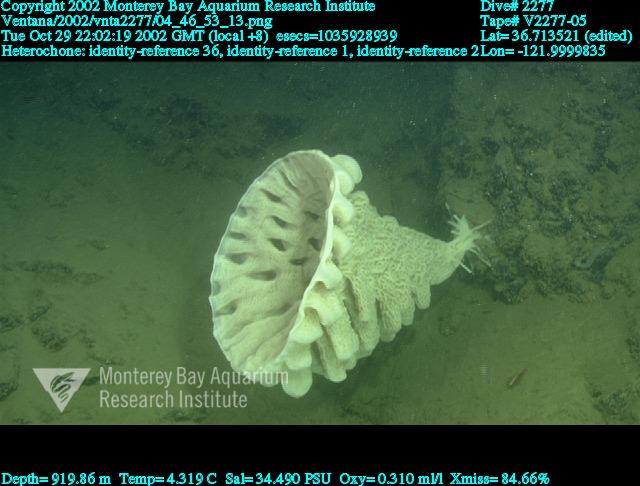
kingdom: Animalia
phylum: Porifera
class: Hexactinellida
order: Sceptrulophora
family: Aphrocallistidae
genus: Heterochone
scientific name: Heterochone
